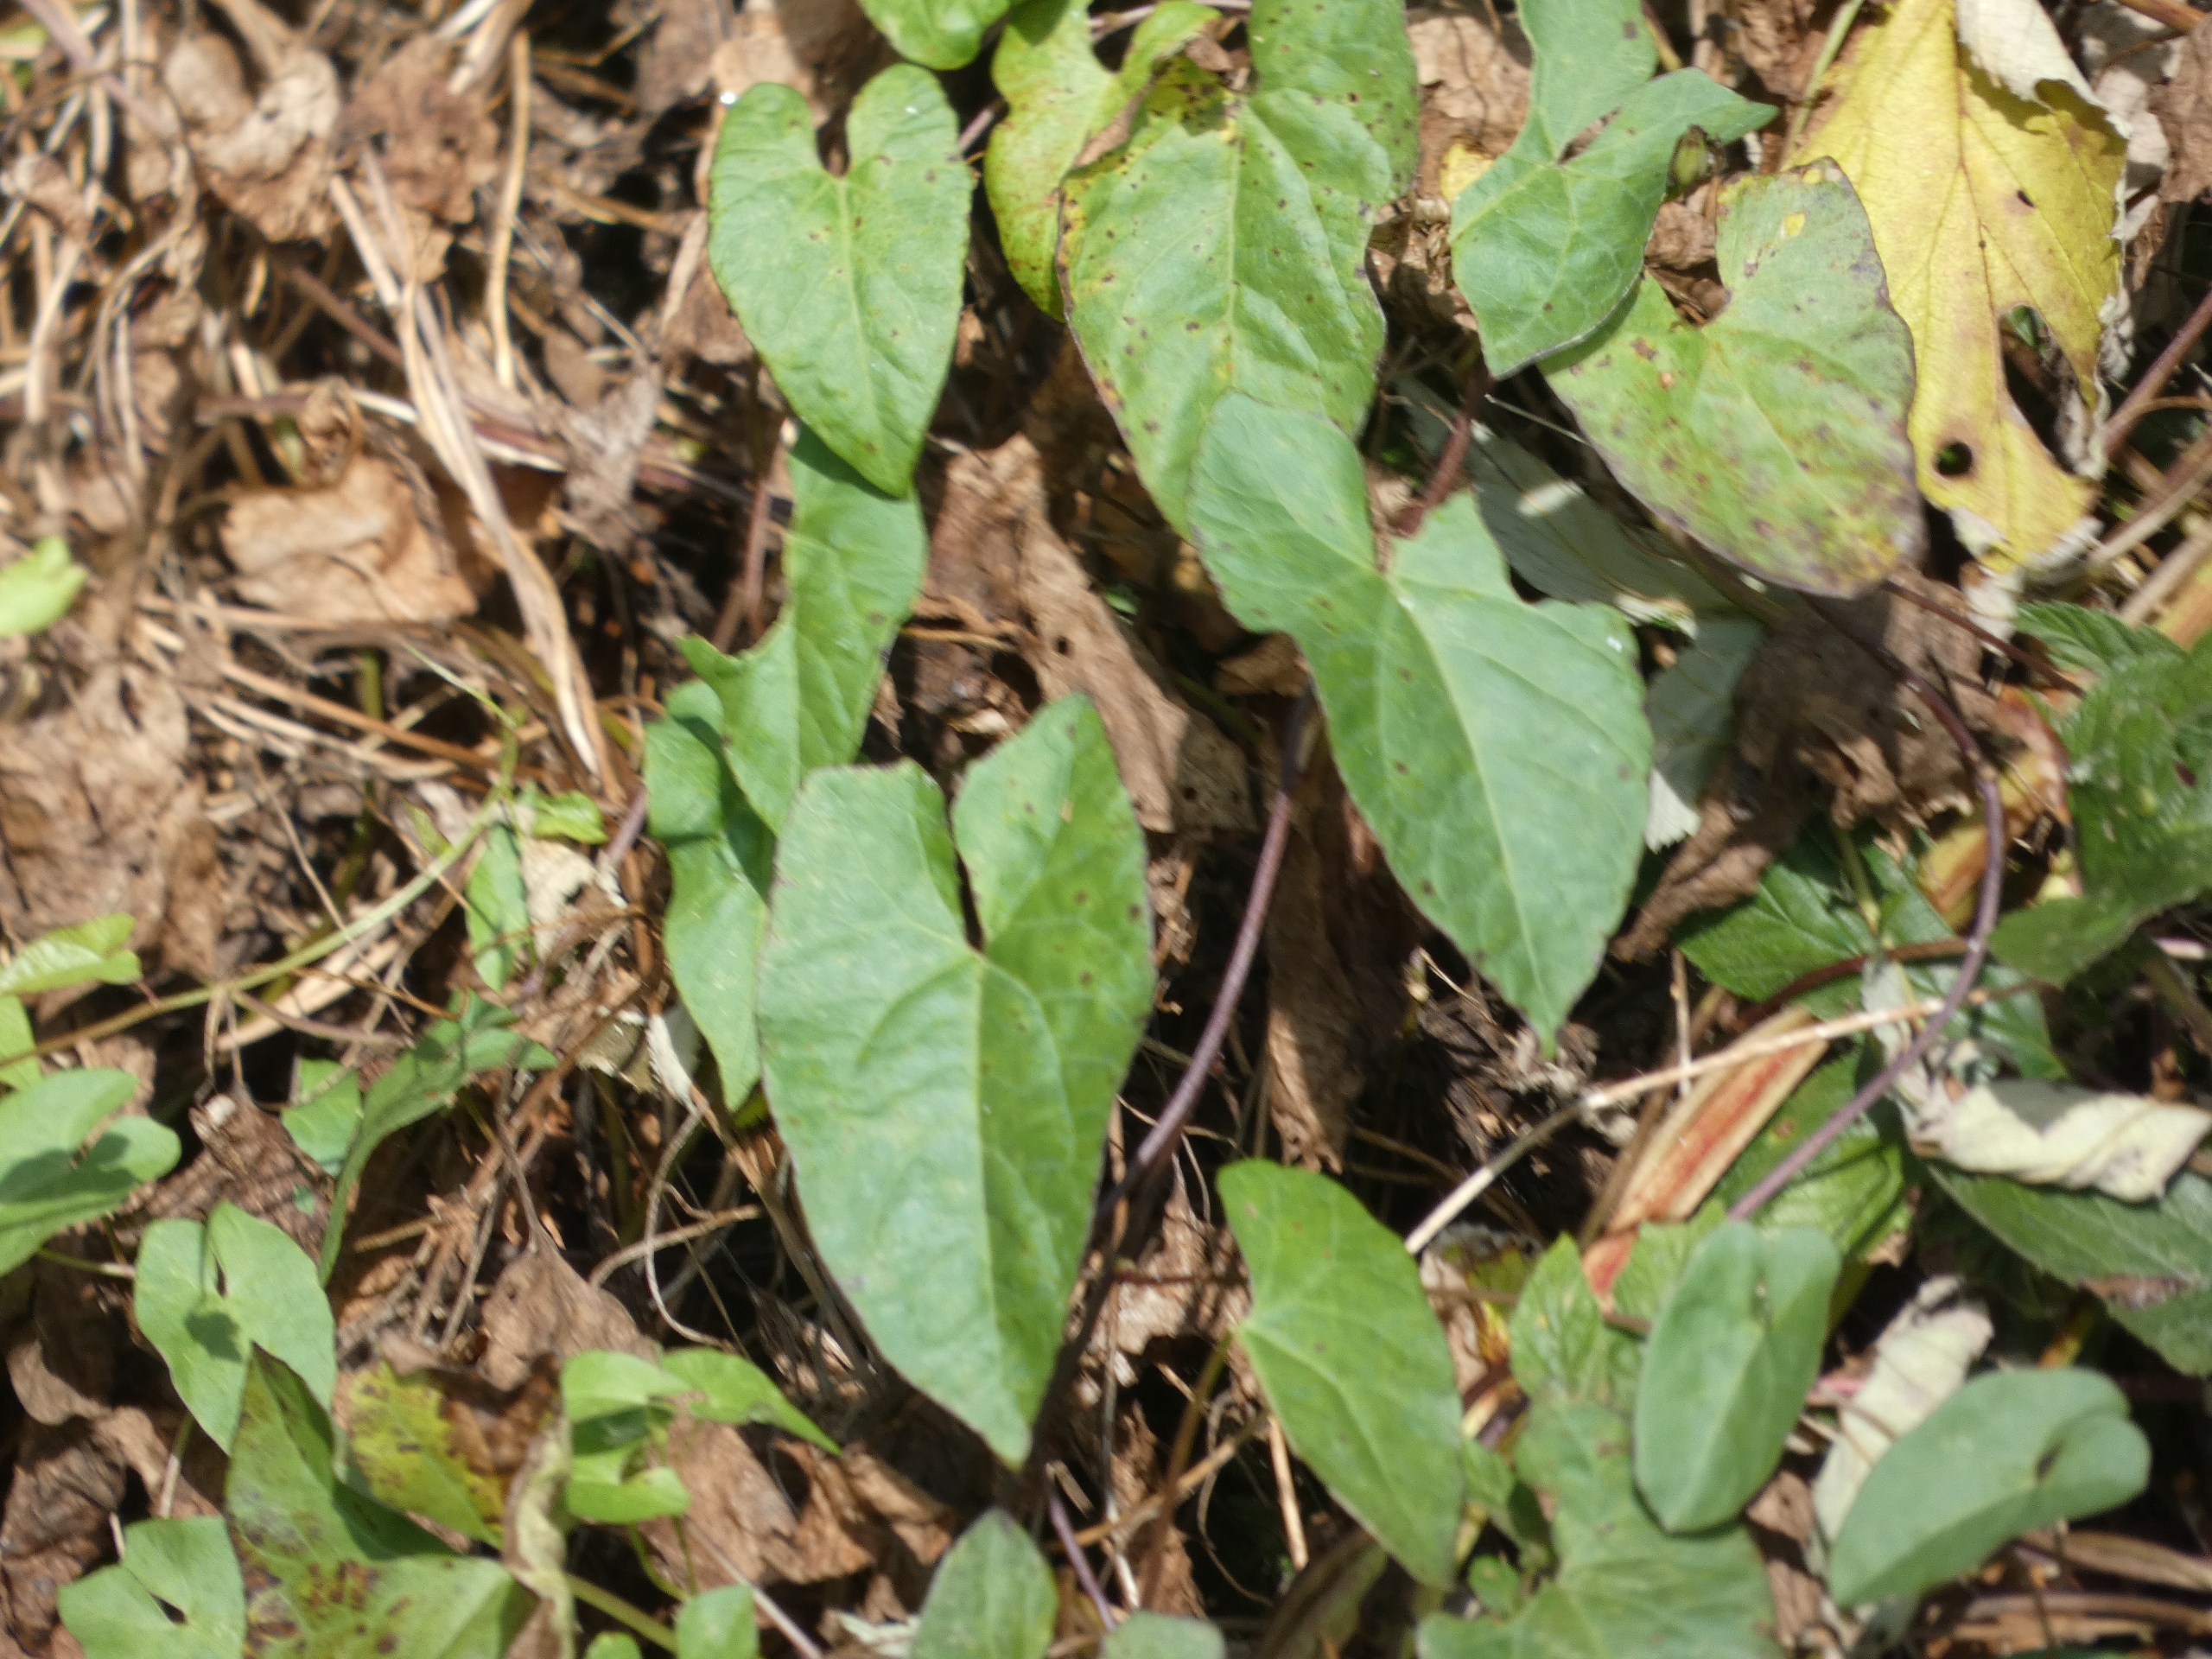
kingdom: Plantae
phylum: Tracheophyta
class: Magnoliopsida
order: Solanales
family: Convolvulaceae
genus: Calystegia
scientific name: Calystegia sepium
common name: Gærde-snerle
